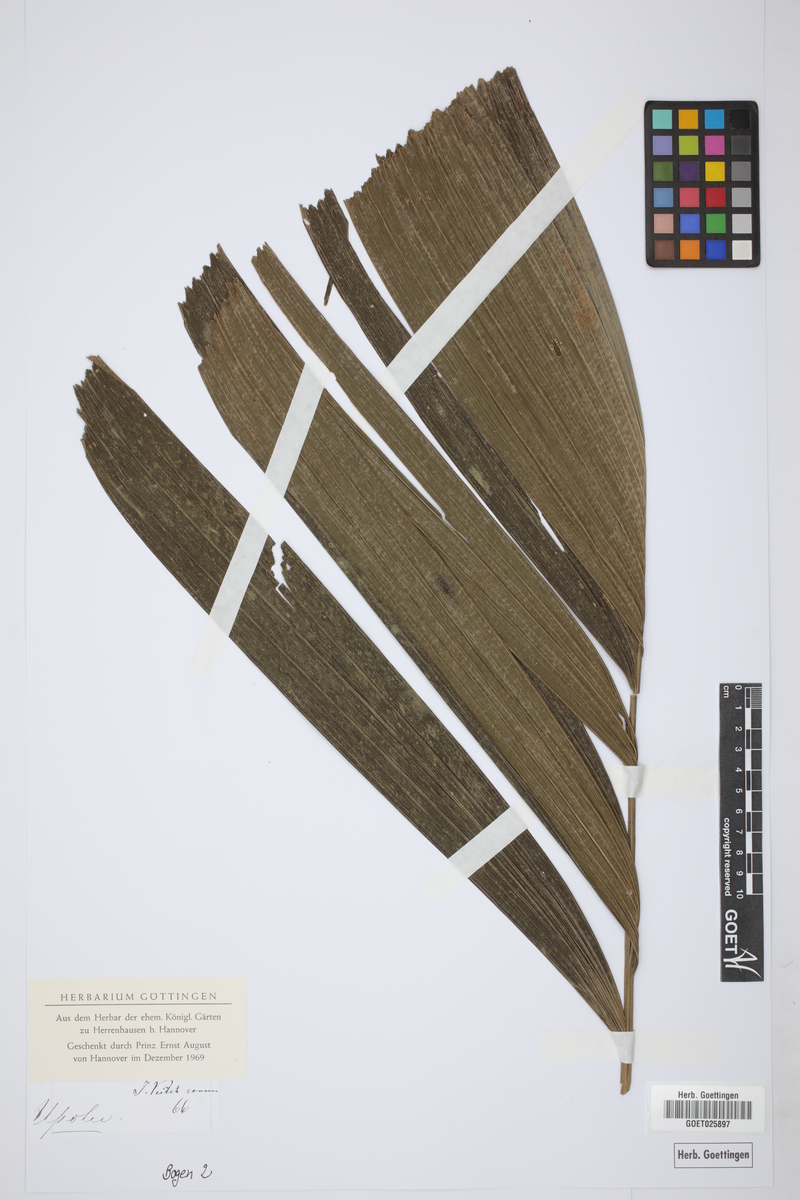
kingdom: Plantae
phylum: Tracheophyta
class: Liliopsida
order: Arecales
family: Arecaceae
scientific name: Arecaceae
